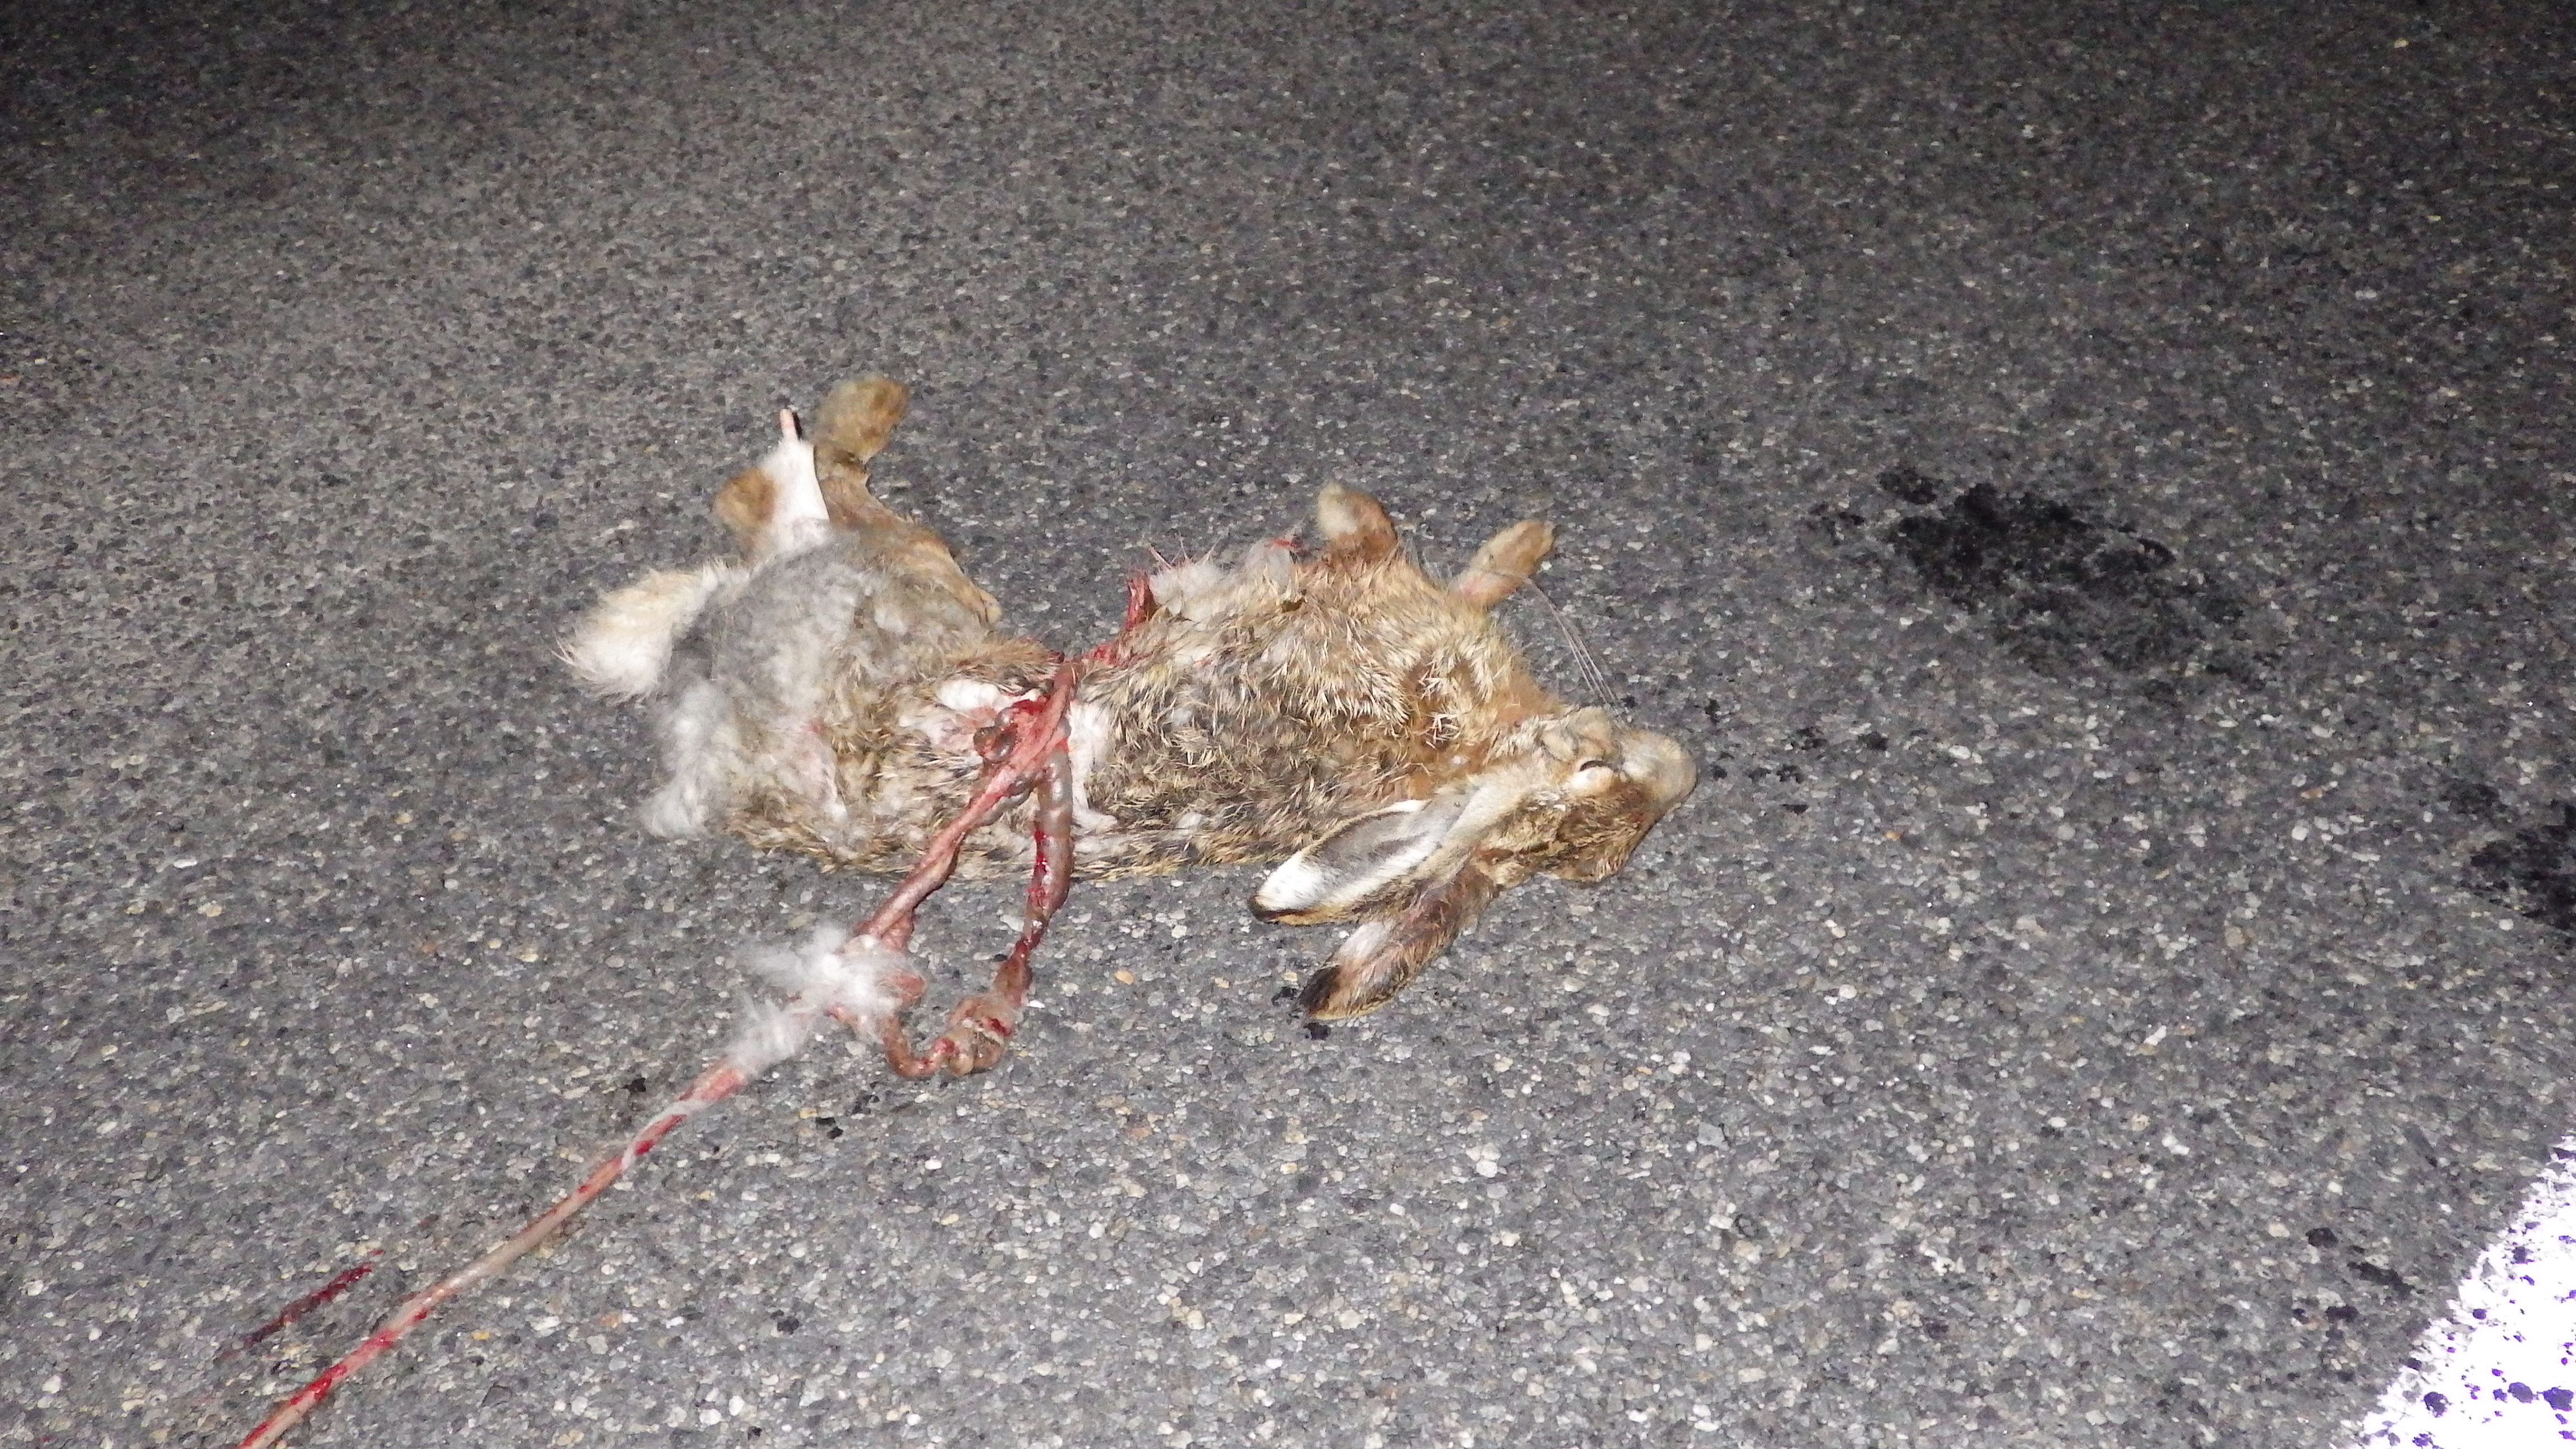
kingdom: Animalia
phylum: Chordata
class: Mammalia
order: Lagomorpha
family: Leporidae
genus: Lepus
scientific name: Lepus europaeus
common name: European hare
